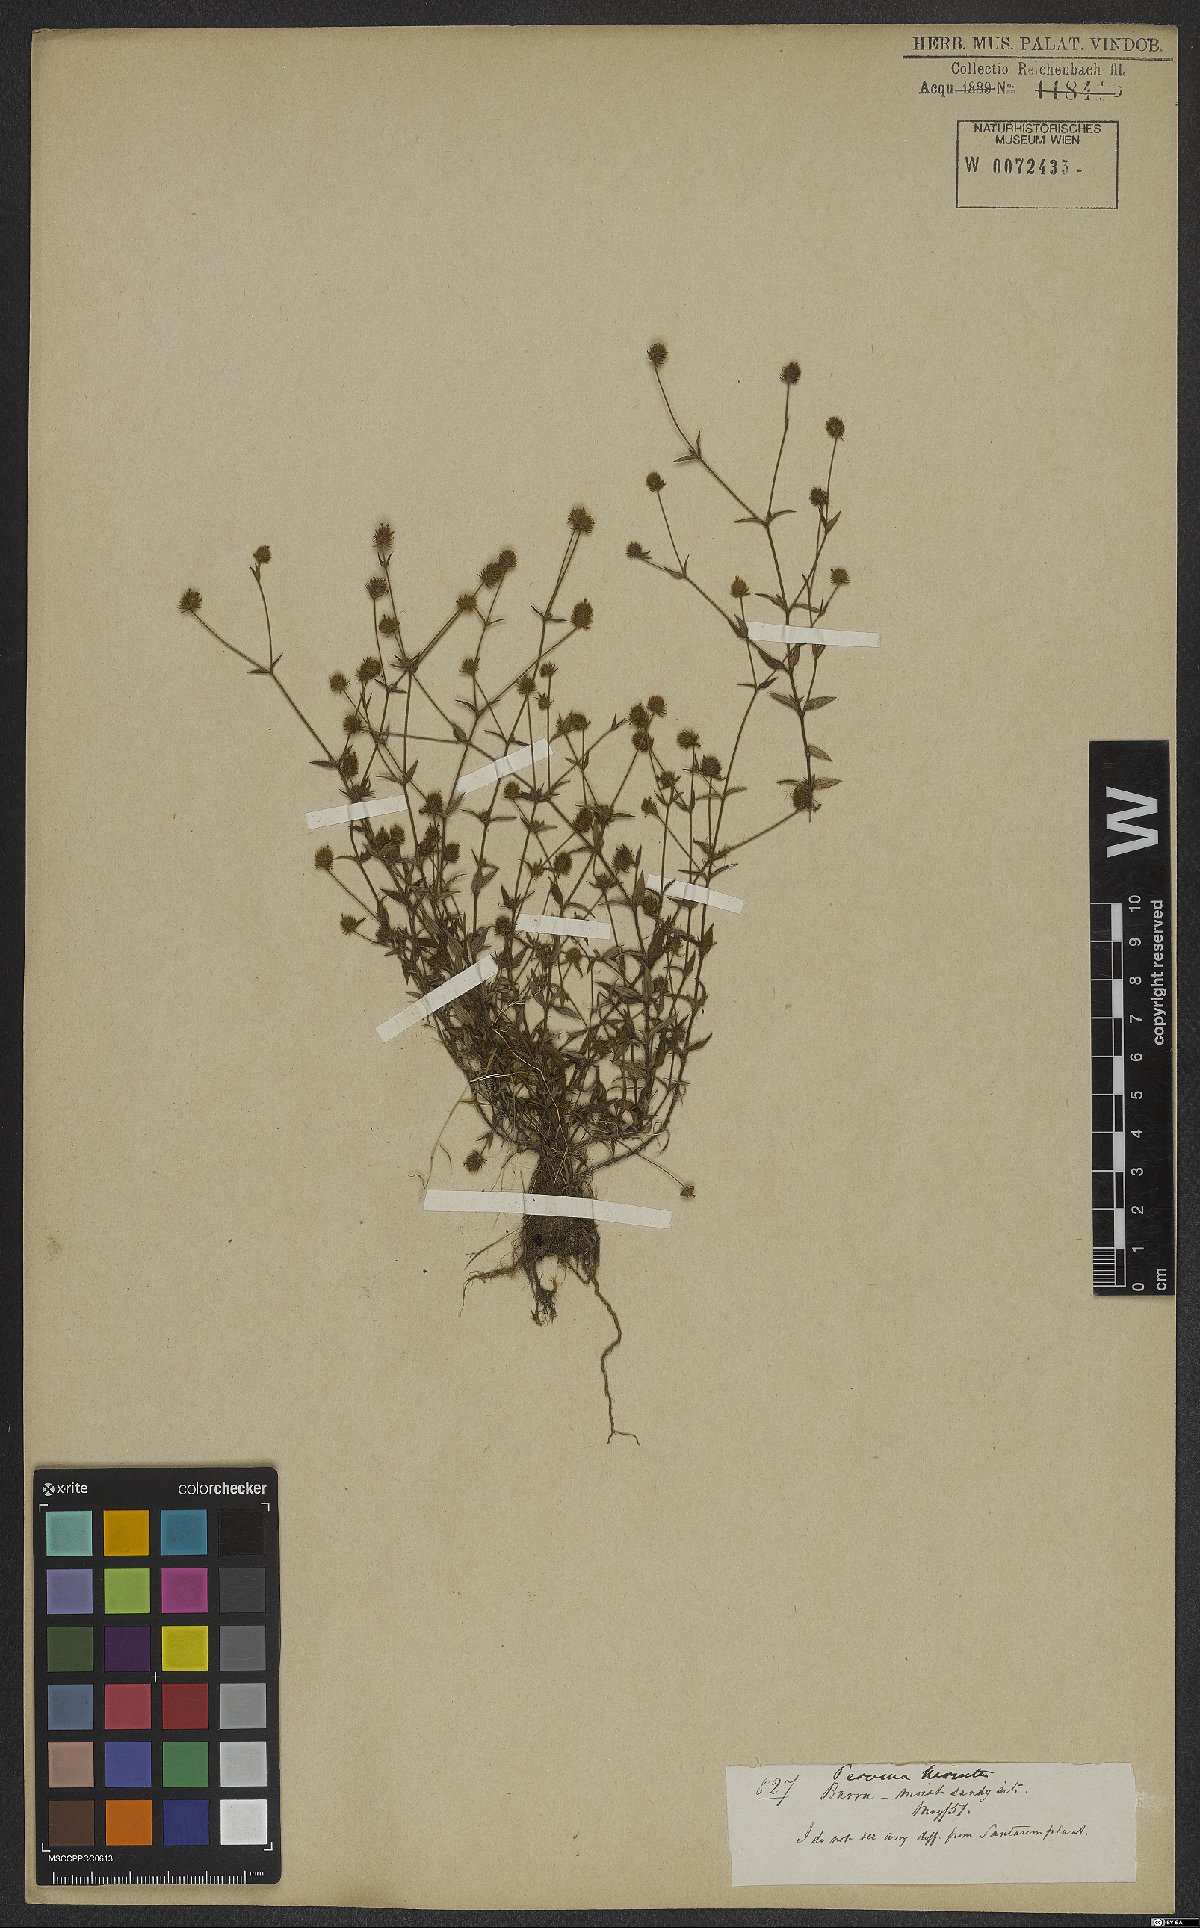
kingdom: Plantae
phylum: Tracheophyta
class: Magnoliopsida
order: Gentianales
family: Rubiaceae
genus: Perama
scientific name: Perama hirsuta
